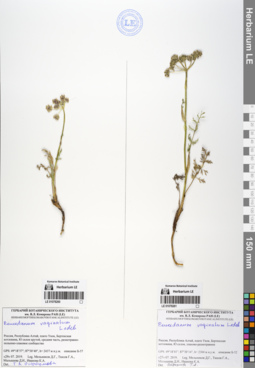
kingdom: Plantae
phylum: Tracheophyta
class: Magnoliopsida
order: Apiales
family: Apiaceae
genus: Peucedanum
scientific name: Peucedanum vaginatum
